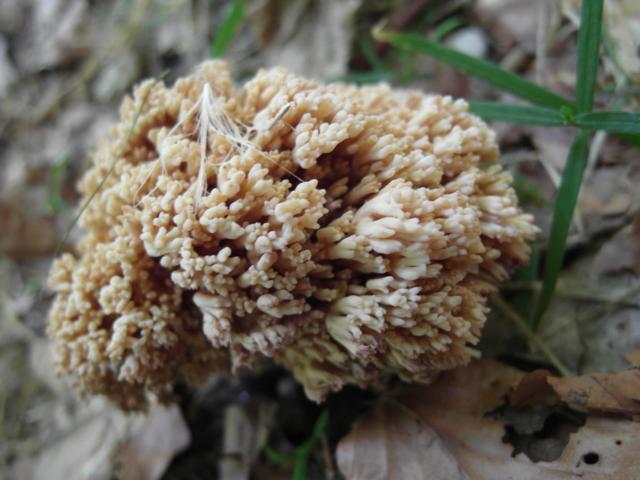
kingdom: Fungi
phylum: Basidiomycota
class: Agaricomycetes
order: Gomphales
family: Gomphaceae
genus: Ramaria
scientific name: Ramaria
